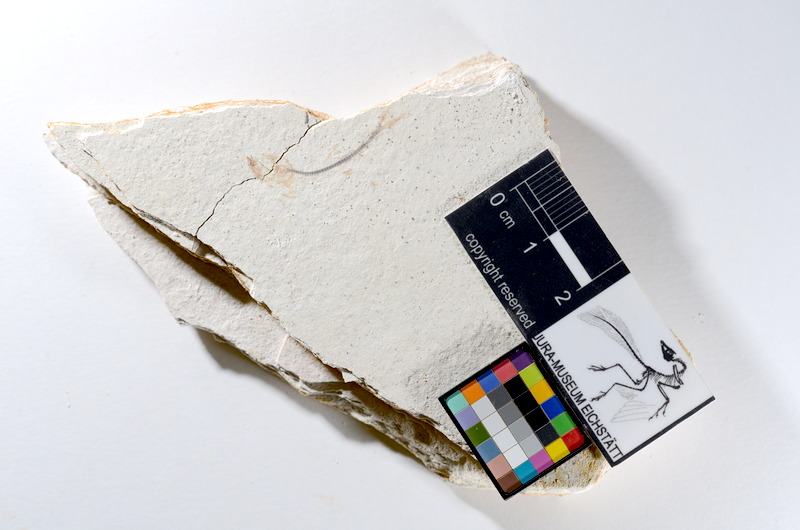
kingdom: Animalia
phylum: Chordata
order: Salmoniformes
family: Orthogonikleithridae
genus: Orthogonikleithrus
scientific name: Orthogonikleithrus hoelli
